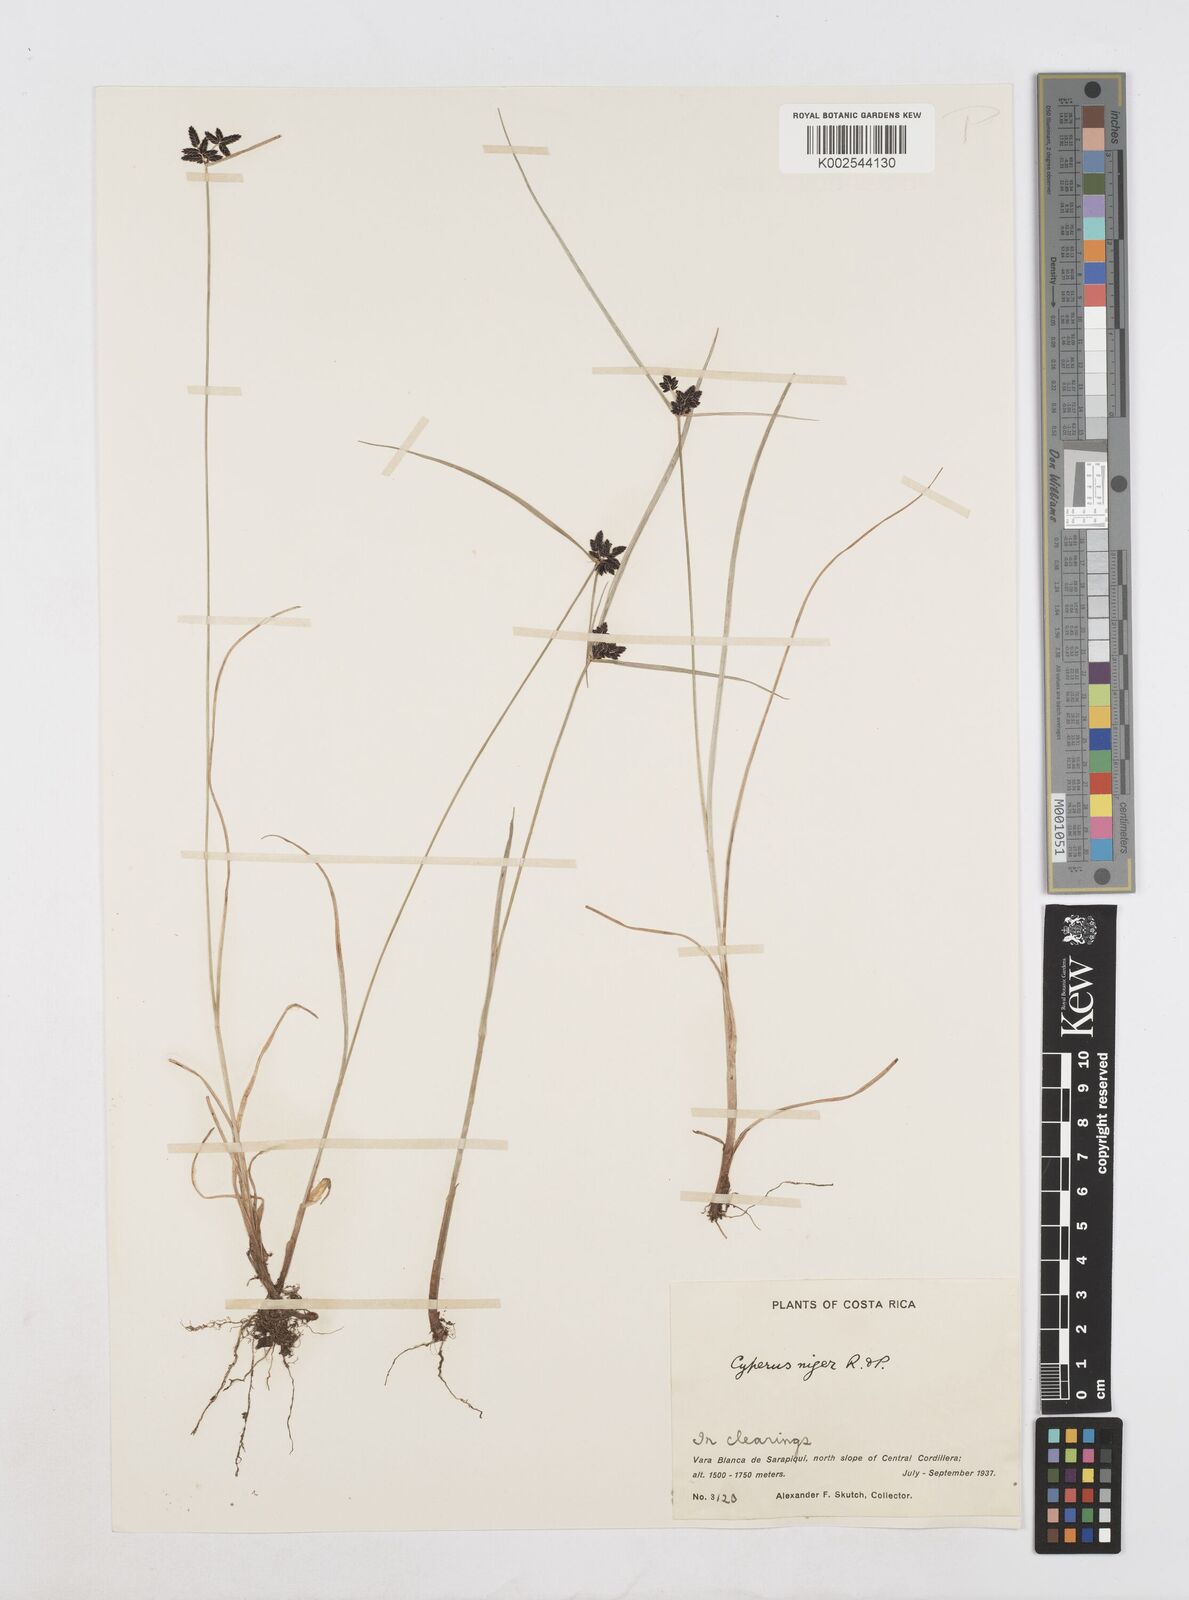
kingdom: Plantae
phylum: Tracheophyta
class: Liliopsida
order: Poales
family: Cyperaceae
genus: Cyperus
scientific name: Cyperus melanostachyus
